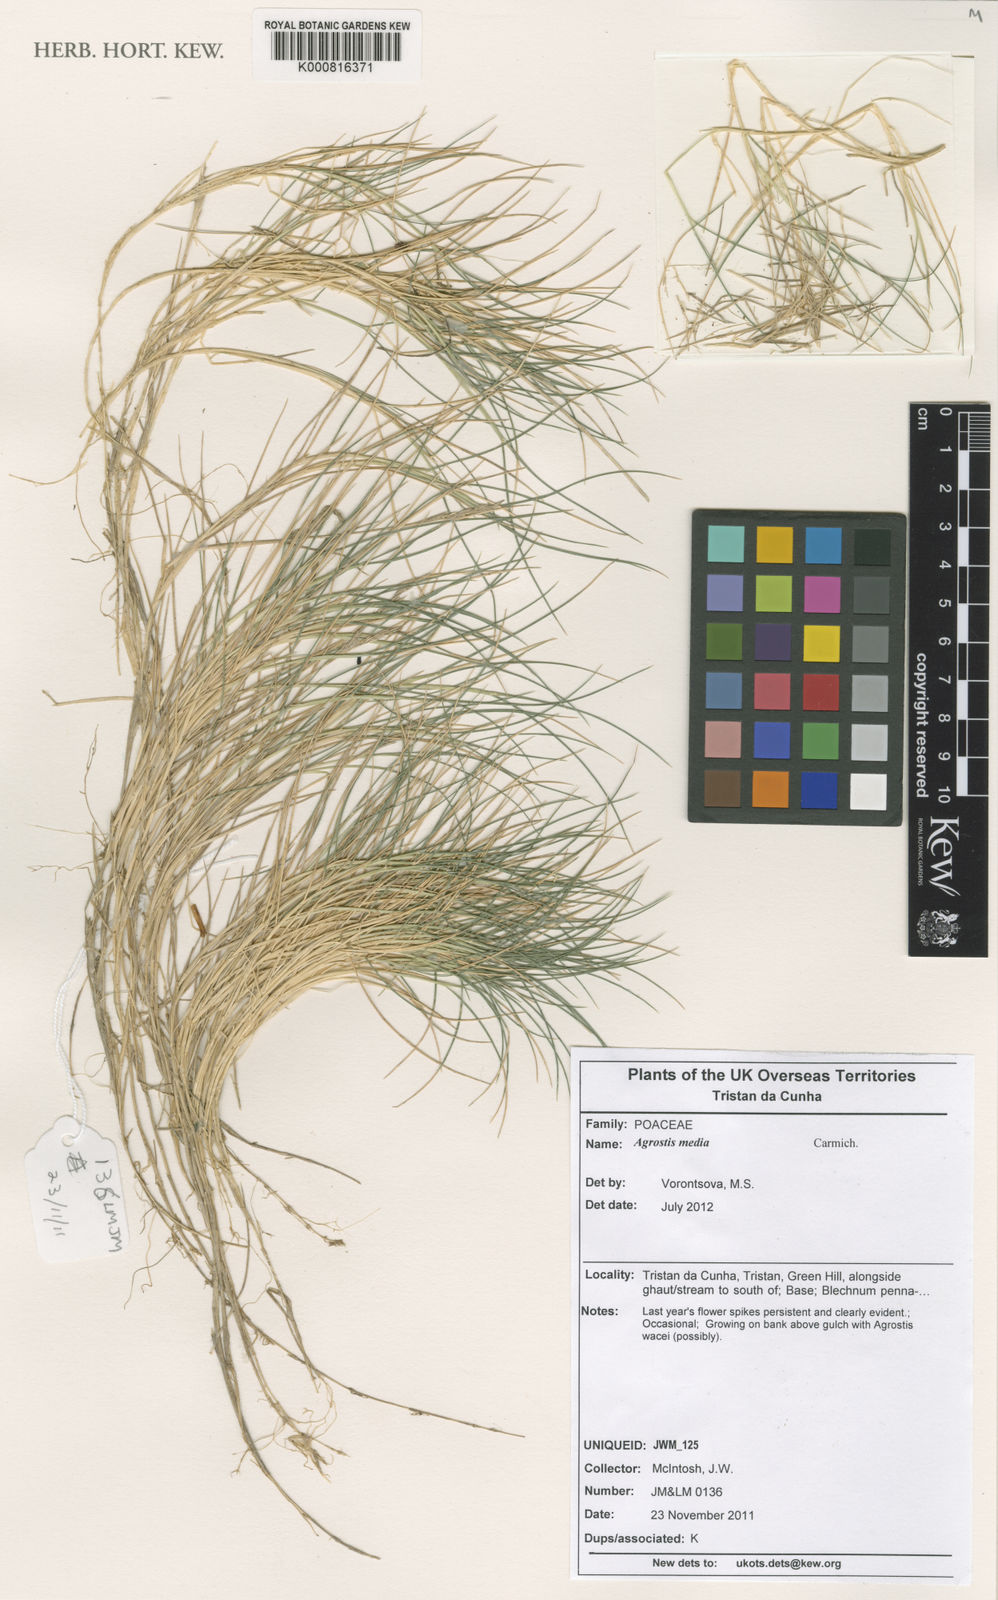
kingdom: Plantae
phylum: Tracheophyta
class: Liliopsida
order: Poales
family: Poaceae
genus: Agrostis
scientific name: Agrostis media
